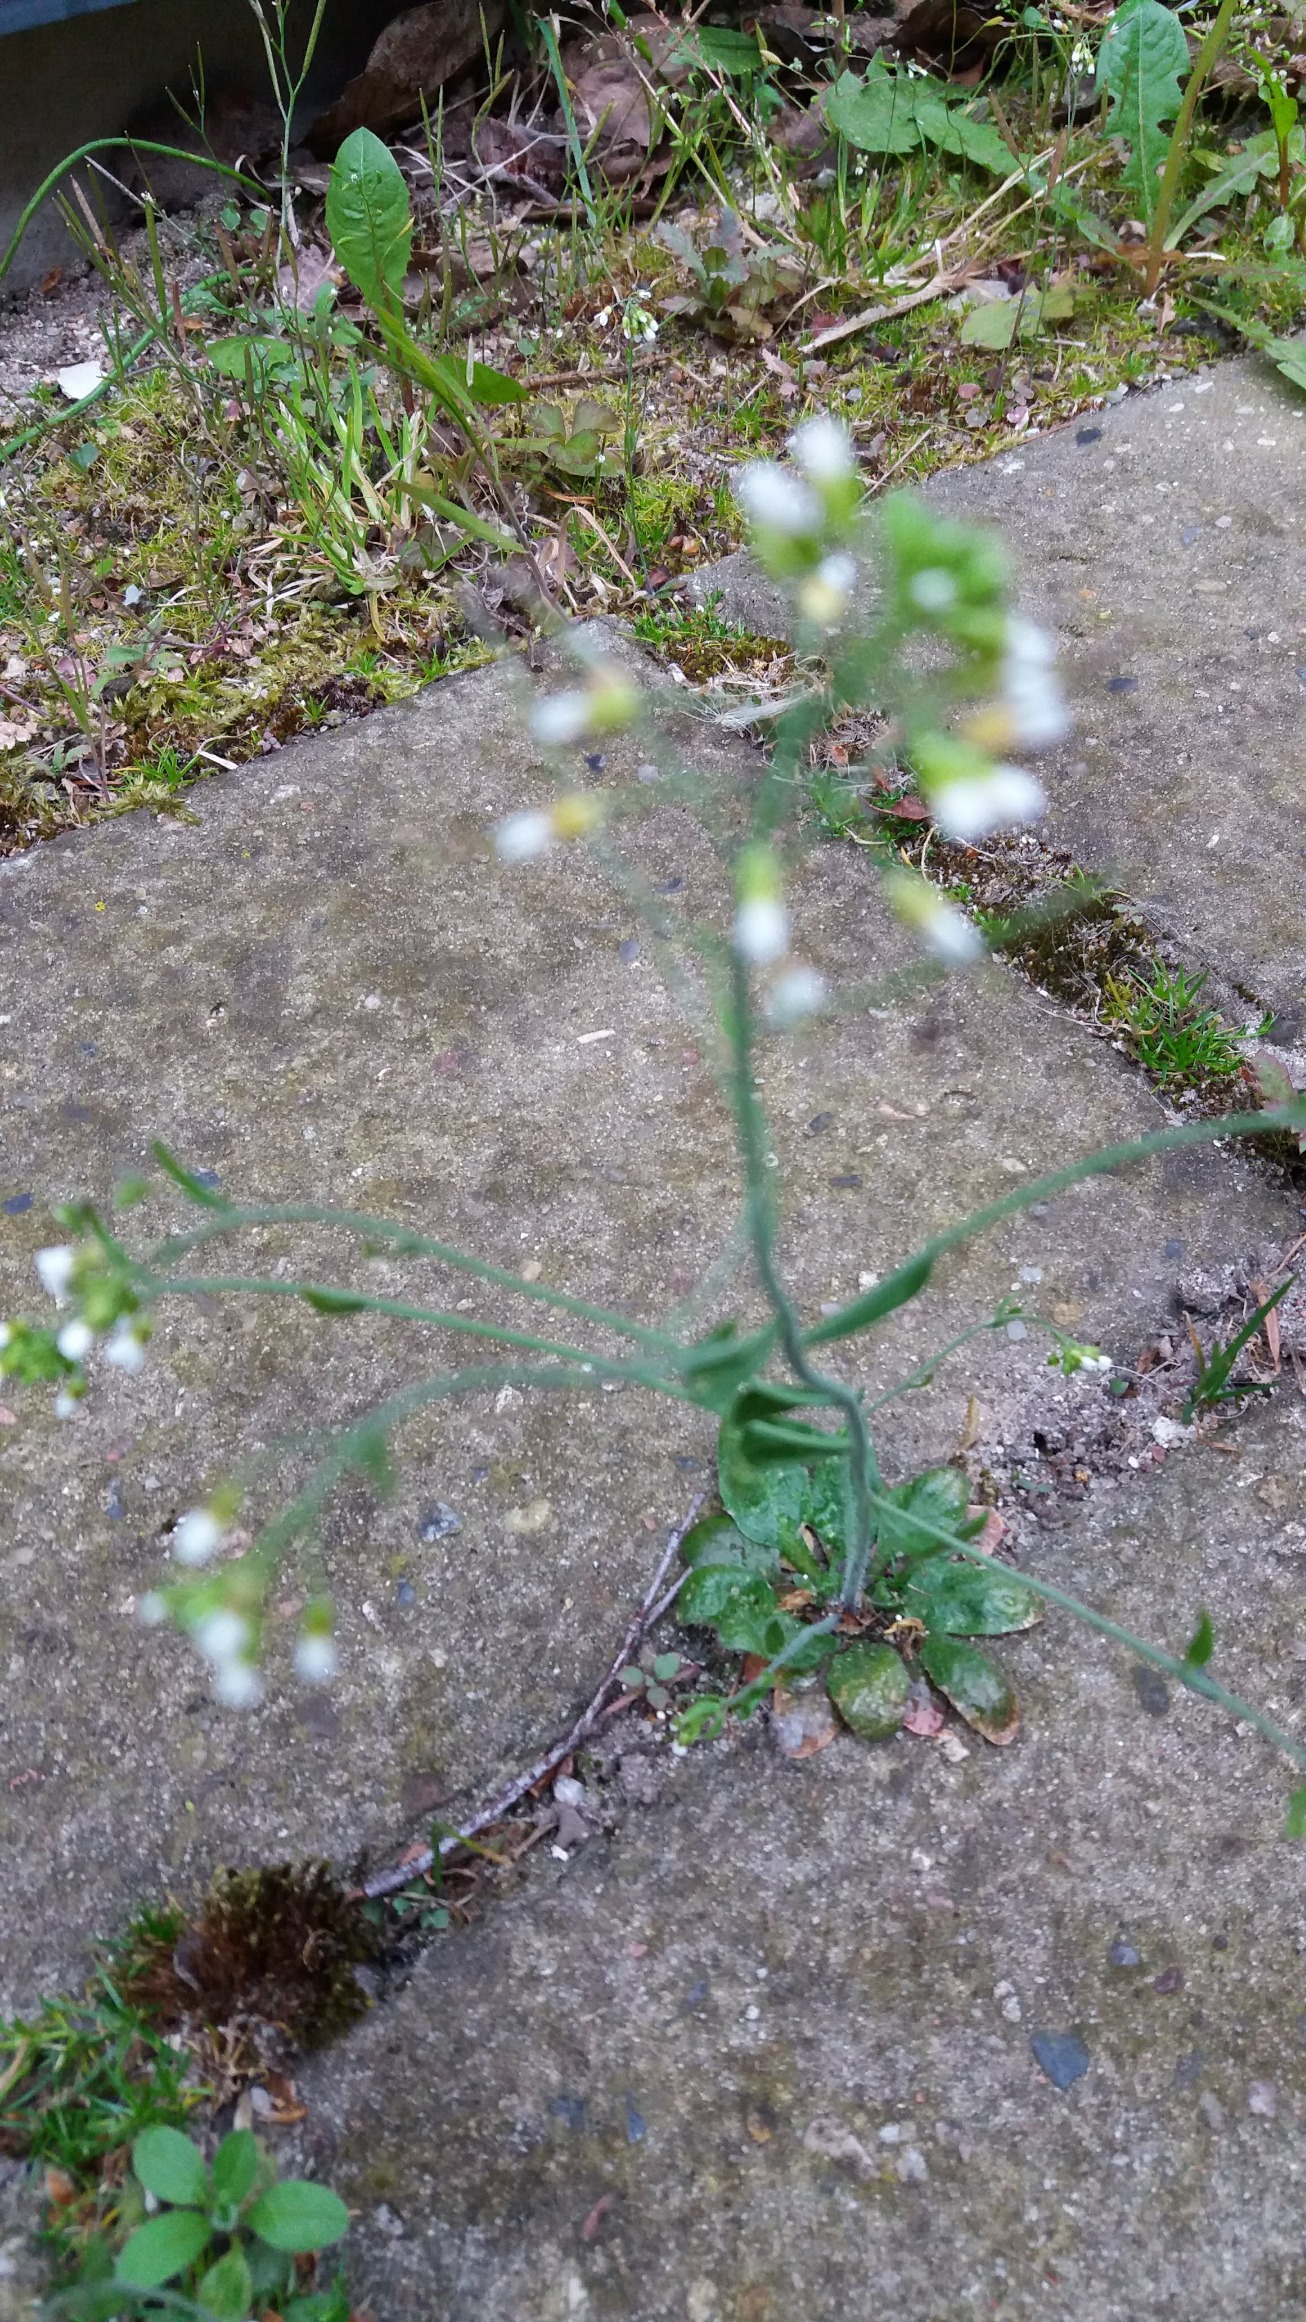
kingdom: Plantae
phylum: Tracheophyta
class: Magnoliopsida
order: Brassicales
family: Brassicaceae
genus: Arabidopsis
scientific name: Arabidopsis thaliana
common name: Almindelig gåsemad
